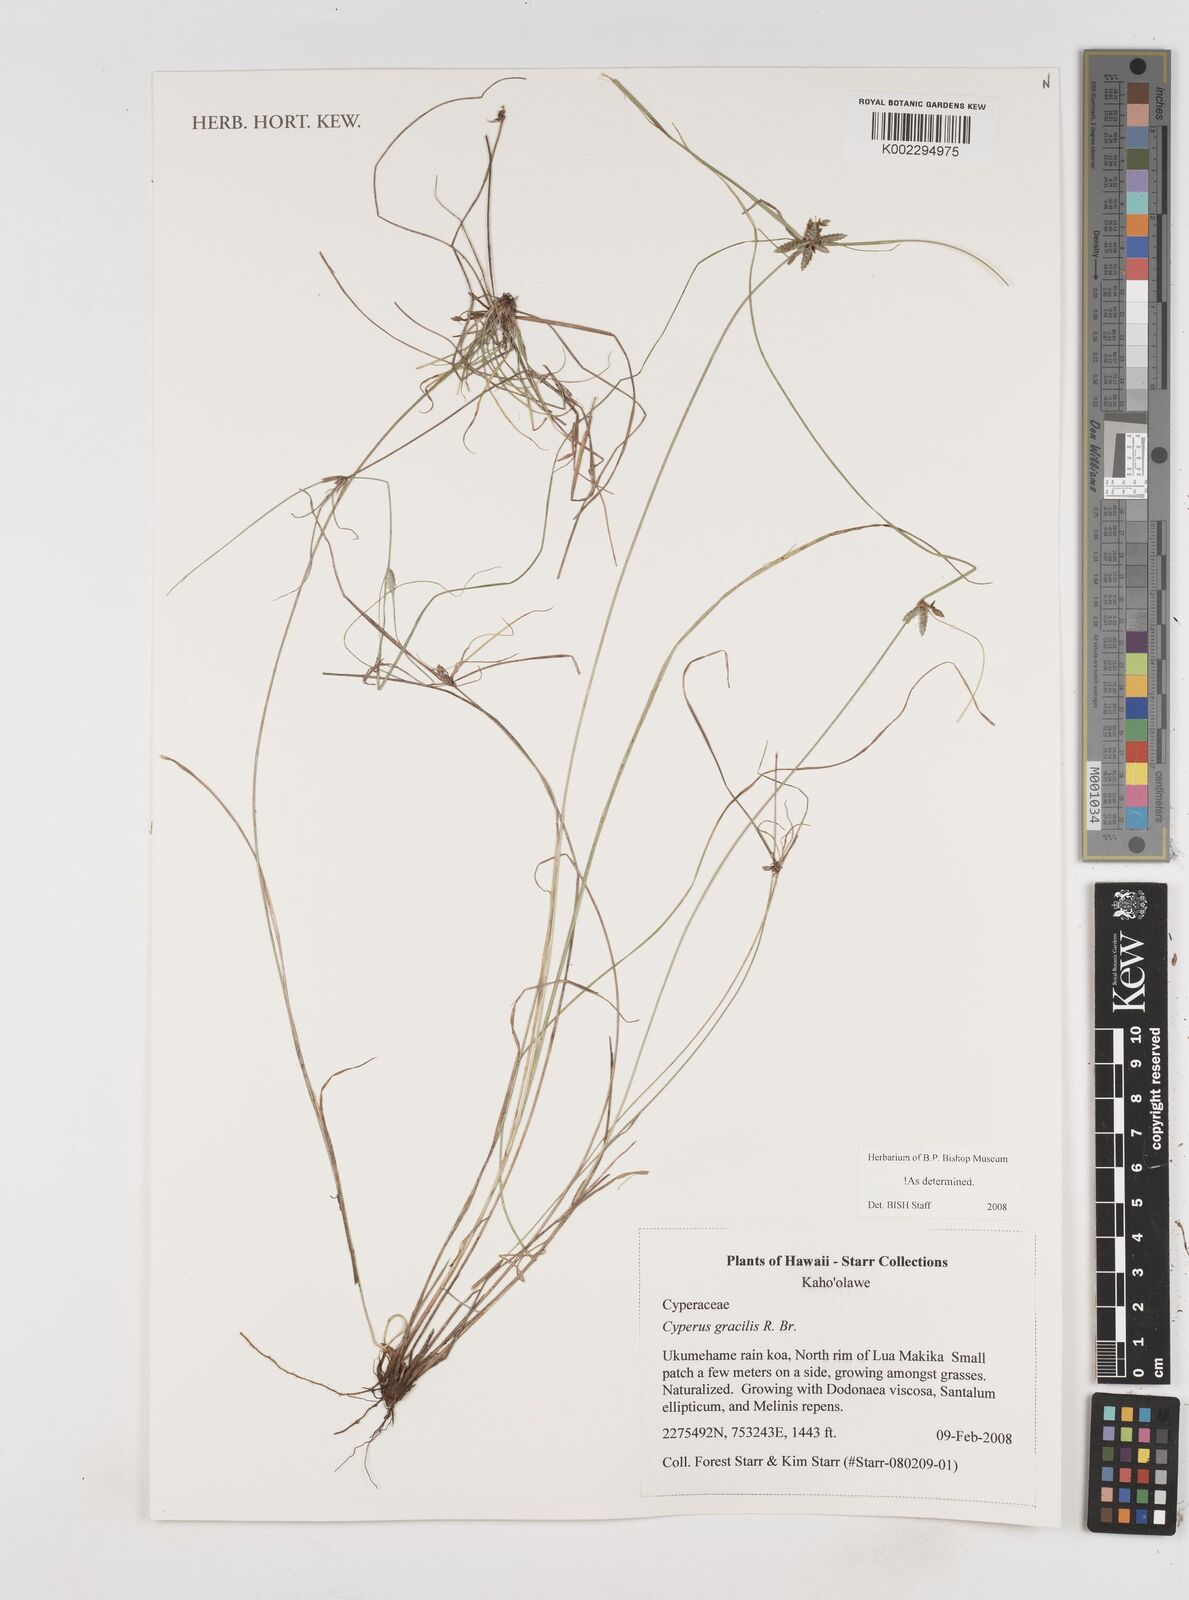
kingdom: Plantae
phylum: Tracheophyta
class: Liliopsida
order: Poales
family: Cyperaceae
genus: Cyperus
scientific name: Cyperus gracilis
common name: Slimjim flatsedge
